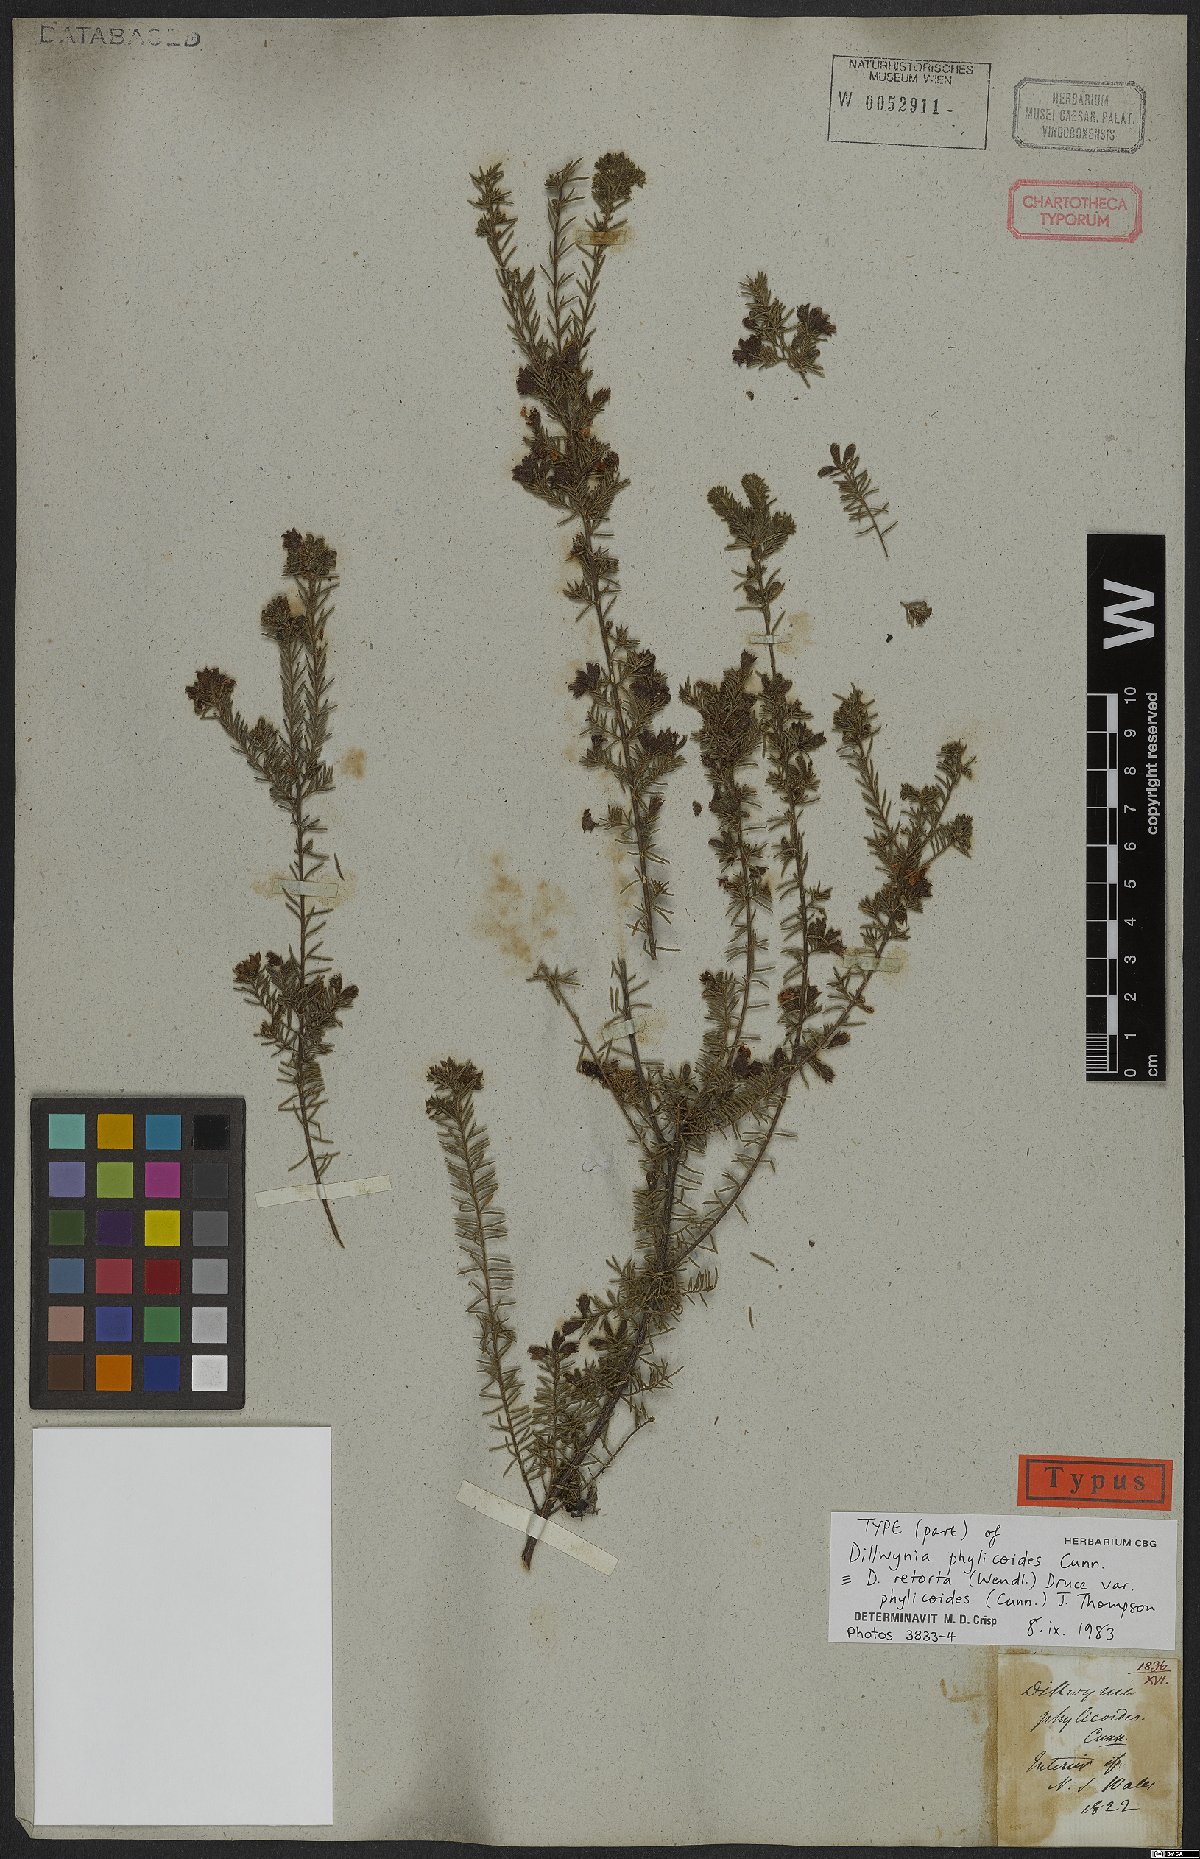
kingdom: Plantae
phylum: Tracheophyta
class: Magnoliopsida
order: Fabales
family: Fabaceae
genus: Dillwynia
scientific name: Dillwynia phylicoides
